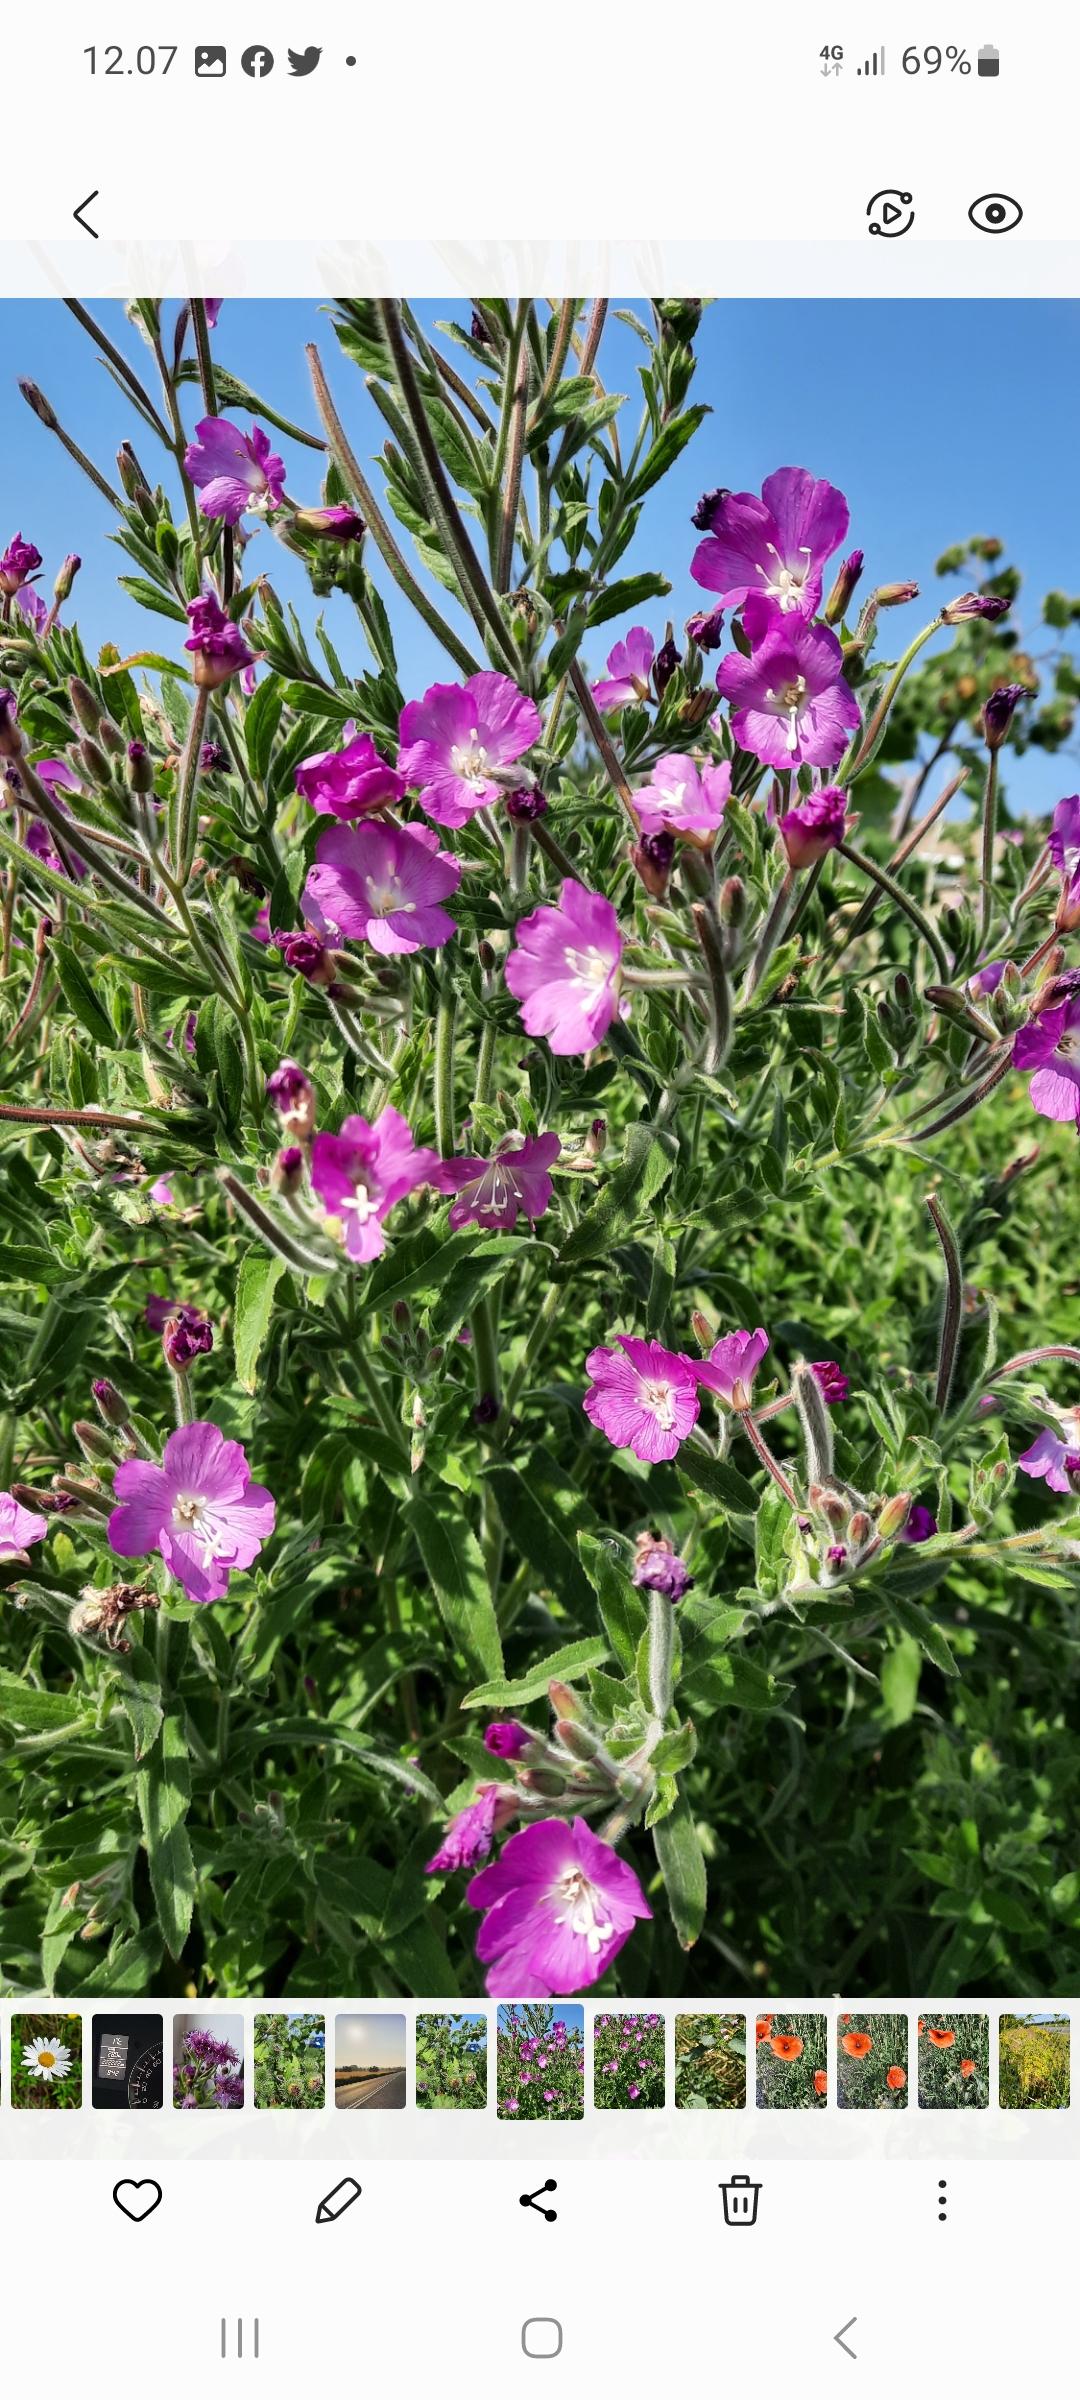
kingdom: Plantae
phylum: Tracheophyta
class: Magnoliopsida
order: Myrtales
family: Onagraceae
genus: Epilobium
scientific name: Epilobium hirsutum
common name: Lådden dueurt
